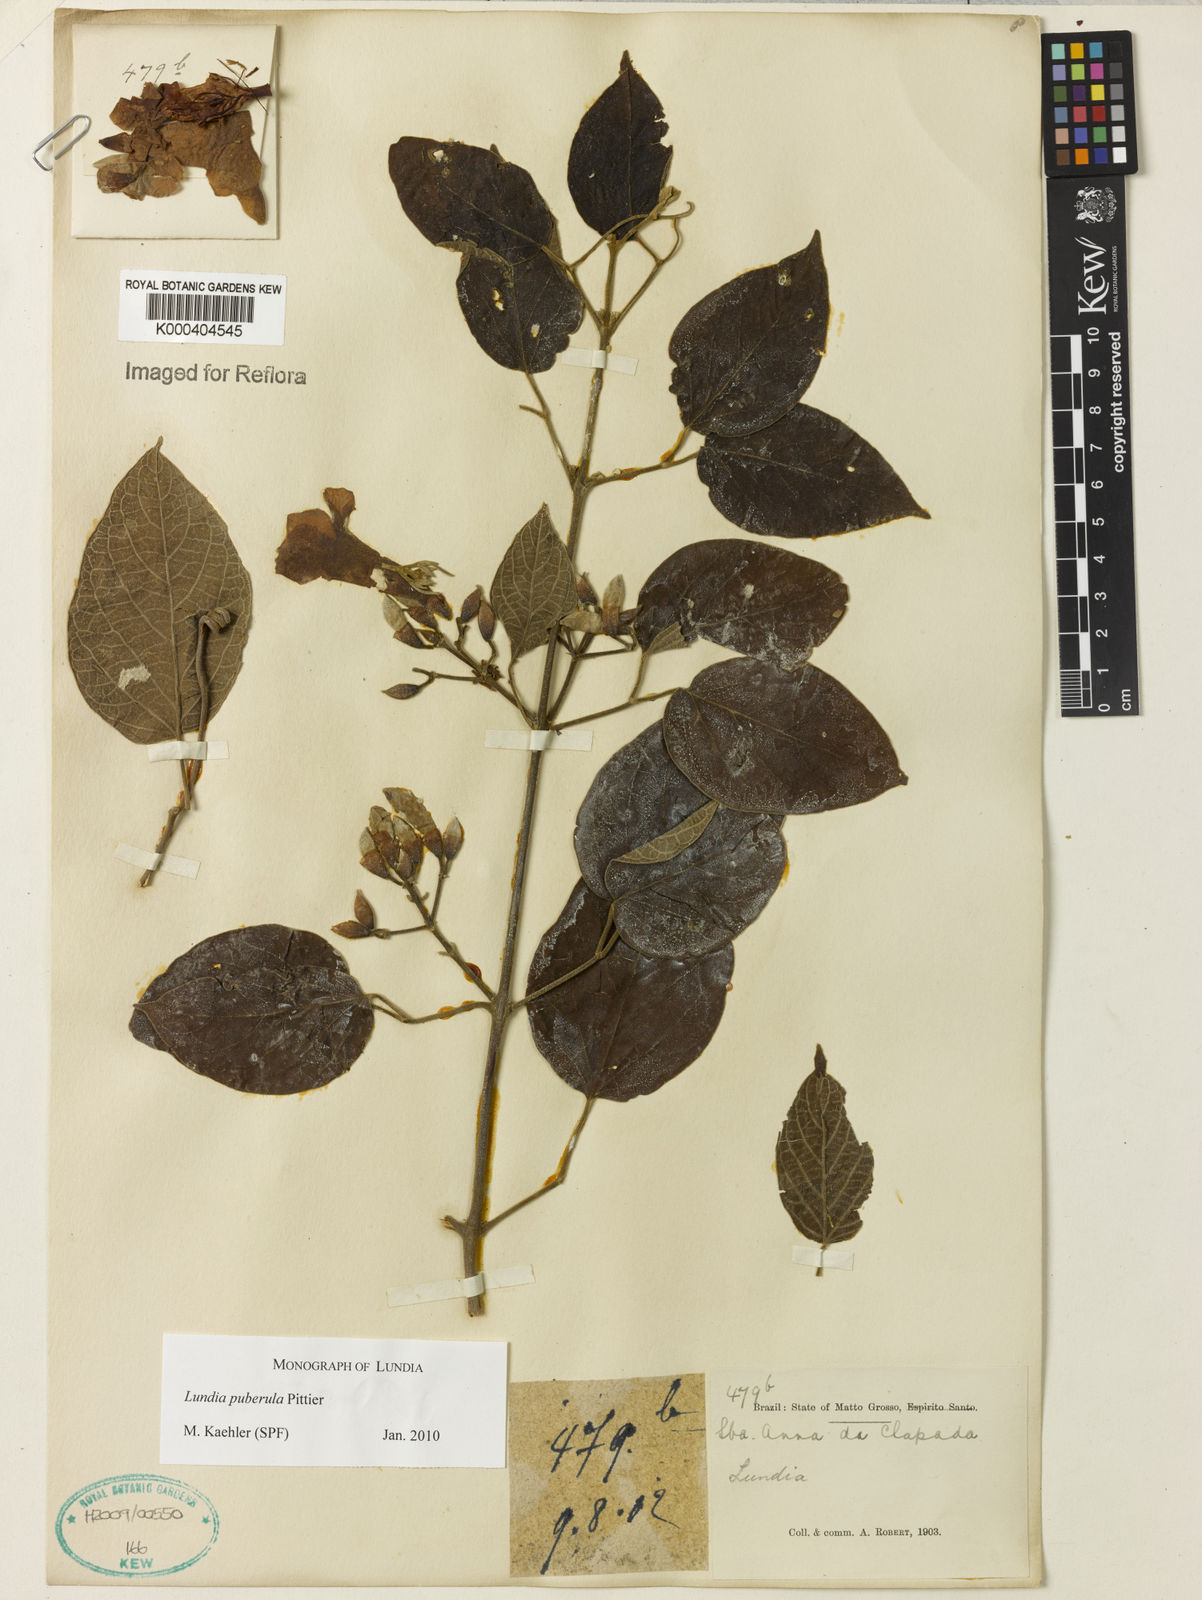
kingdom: Plantae
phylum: Tracheophyta
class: Magnoliopsida
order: Lamiales
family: Bignoniaceae
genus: Lundia
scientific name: Lundia puberula
